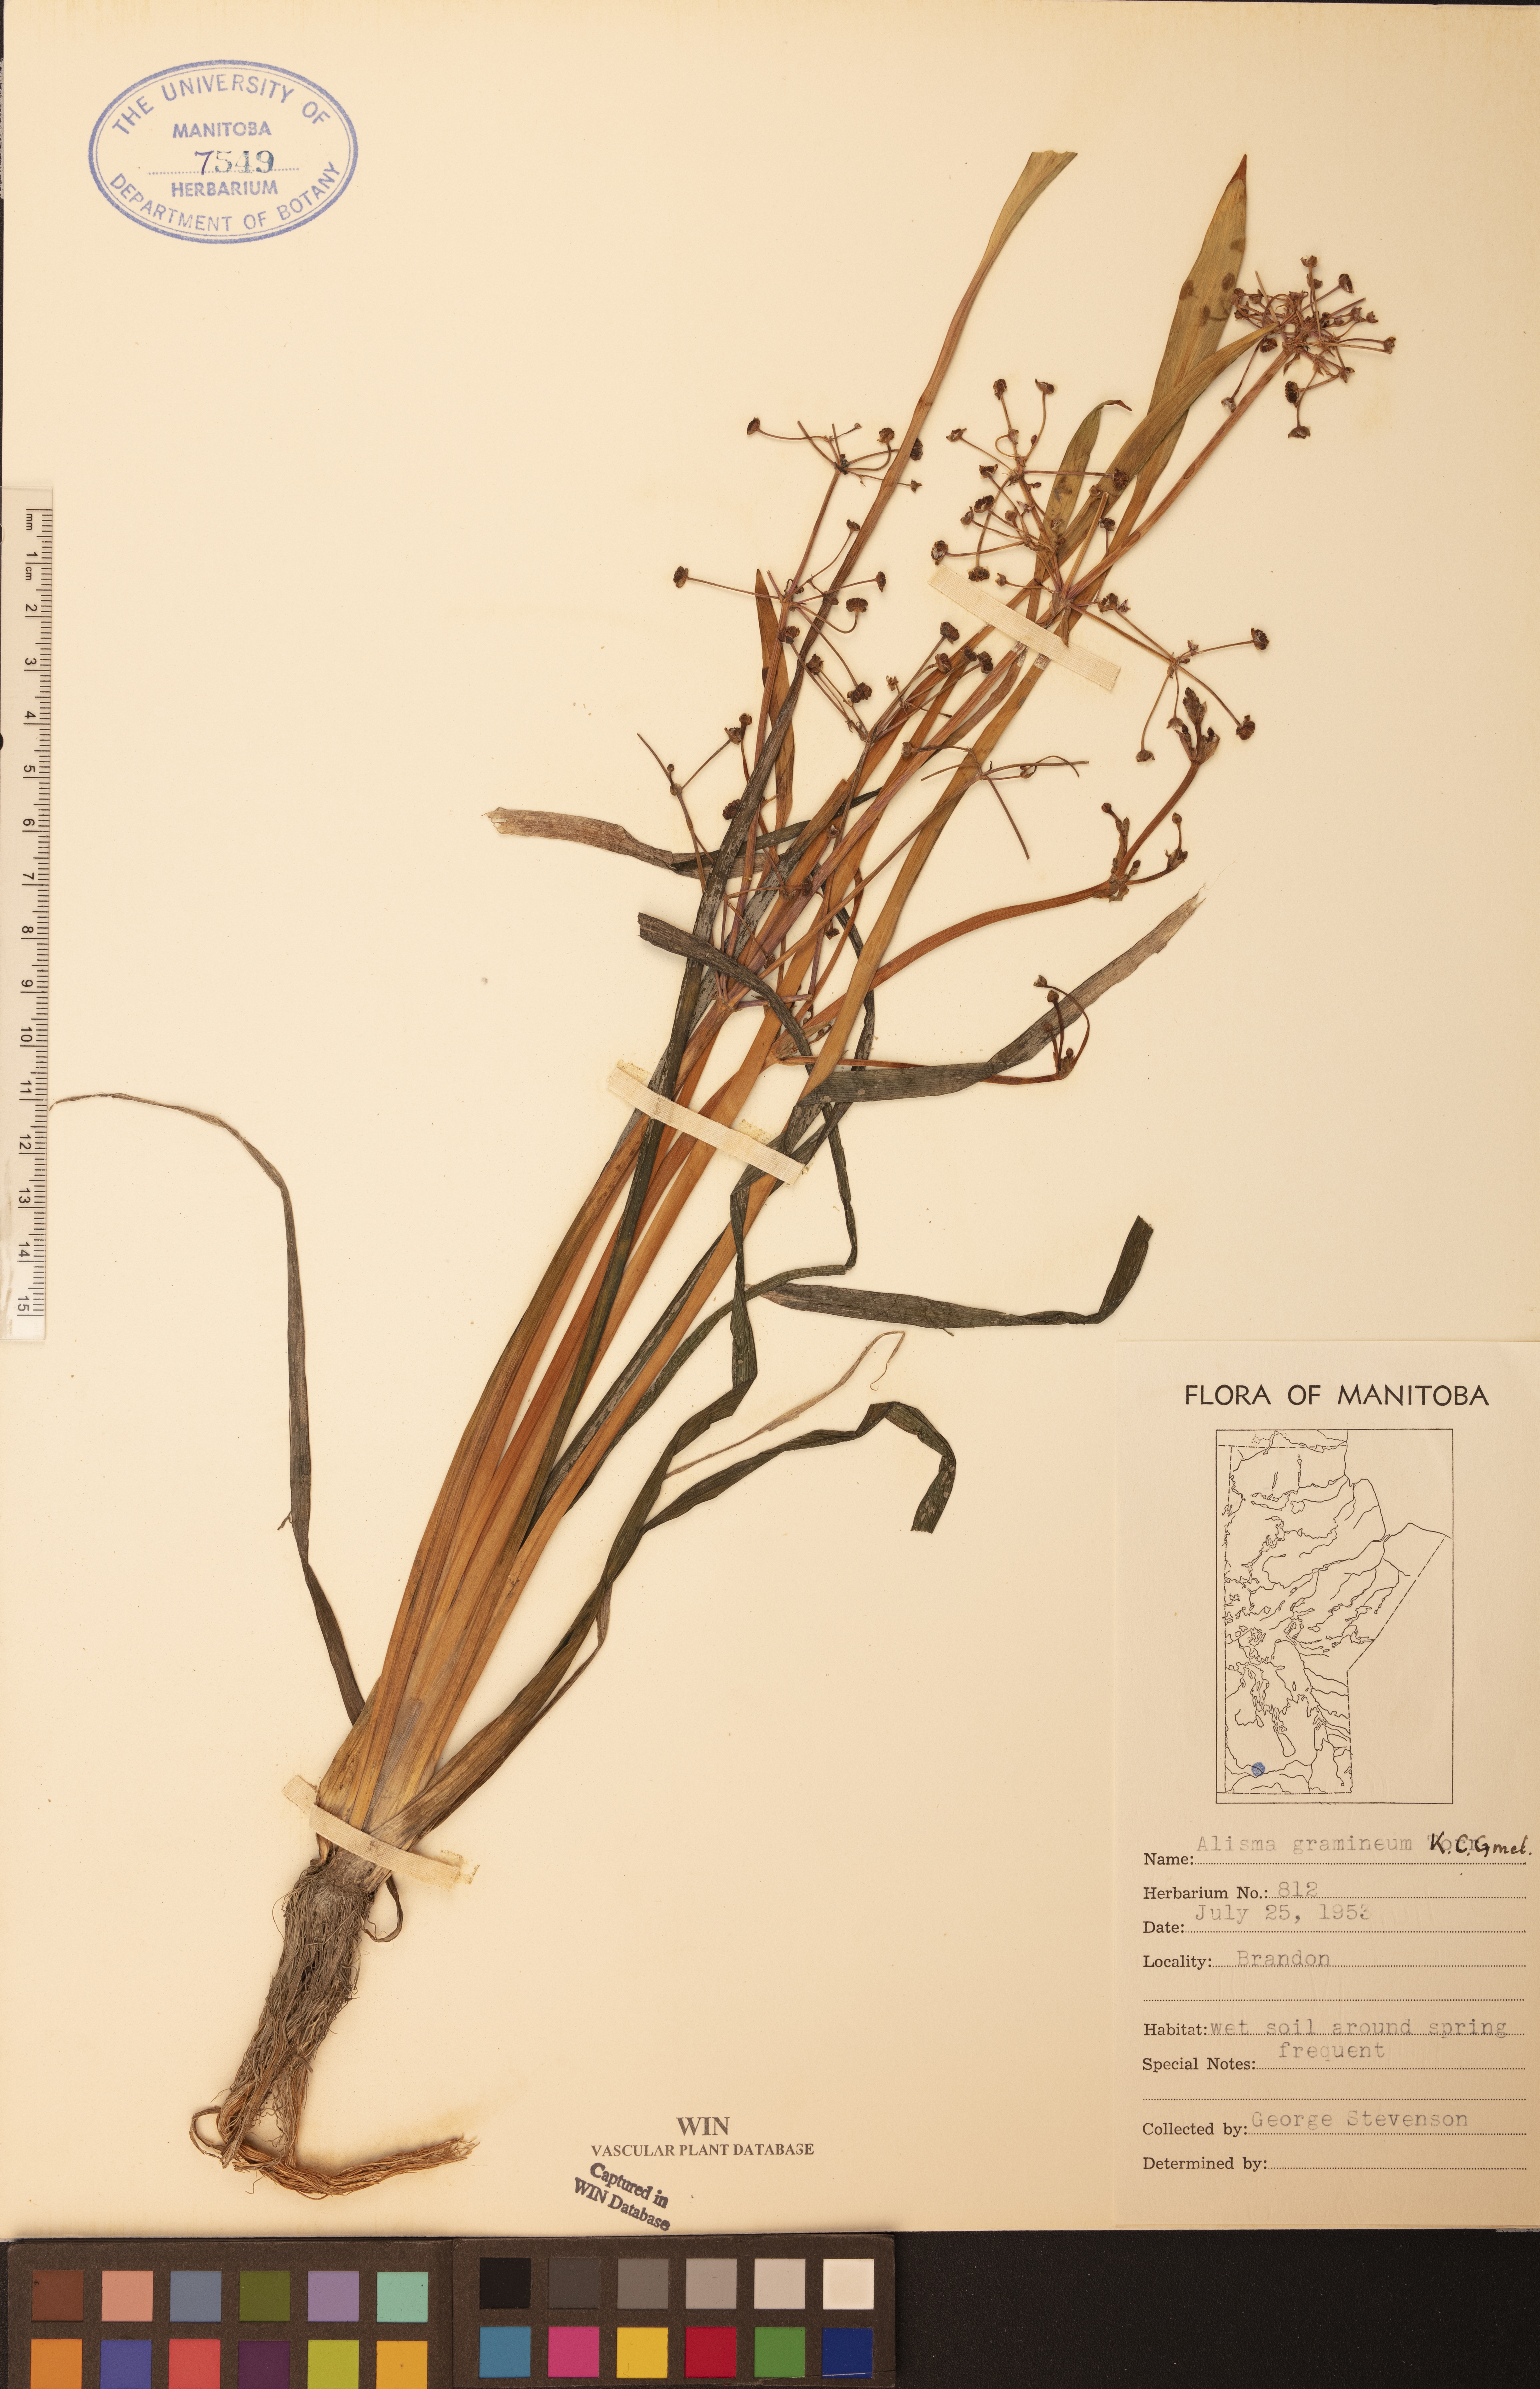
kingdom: Plantae
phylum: Tracheophyta
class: Liliopsida
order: Alismatales
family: Alismataceae
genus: Alisma
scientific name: Alisma gramineum
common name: Ribbon-leaved water-plantain
